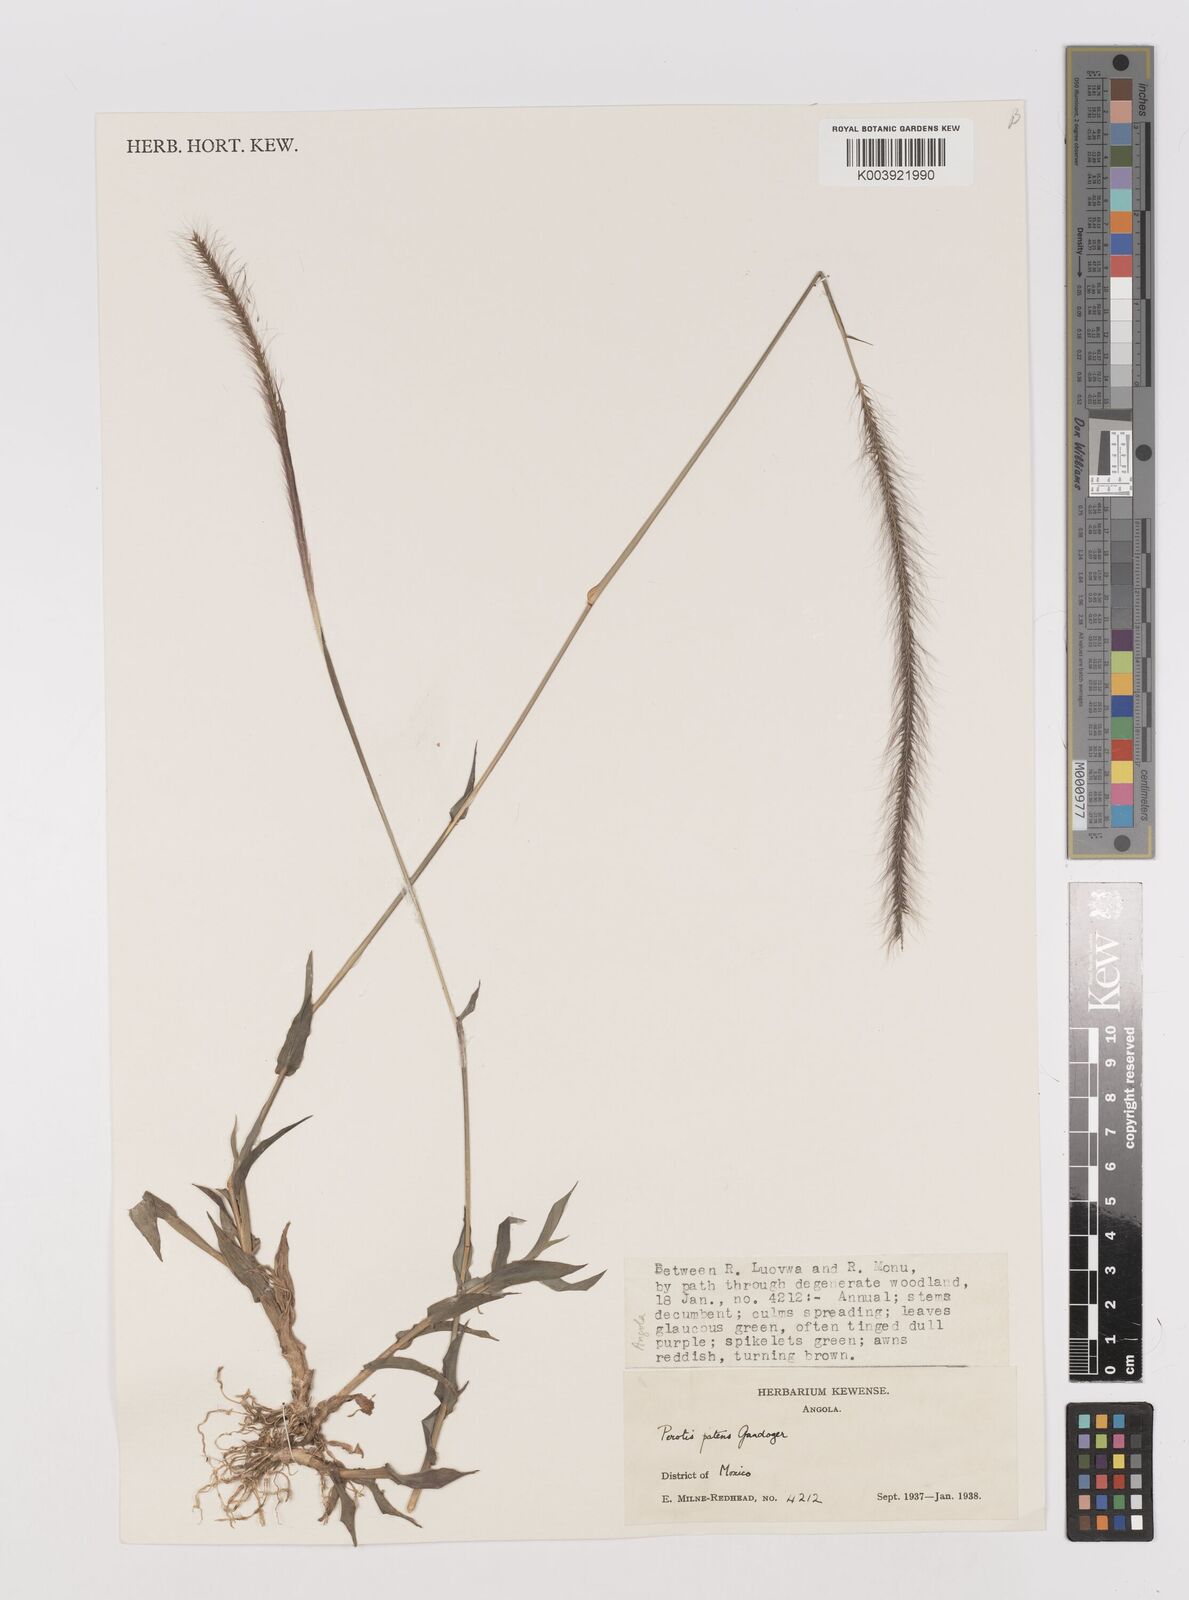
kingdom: Plantae
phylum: Tracheophyta
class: Liliopsida
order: Poales
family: Poaceae
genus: Perotis
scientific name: Perotis patens
